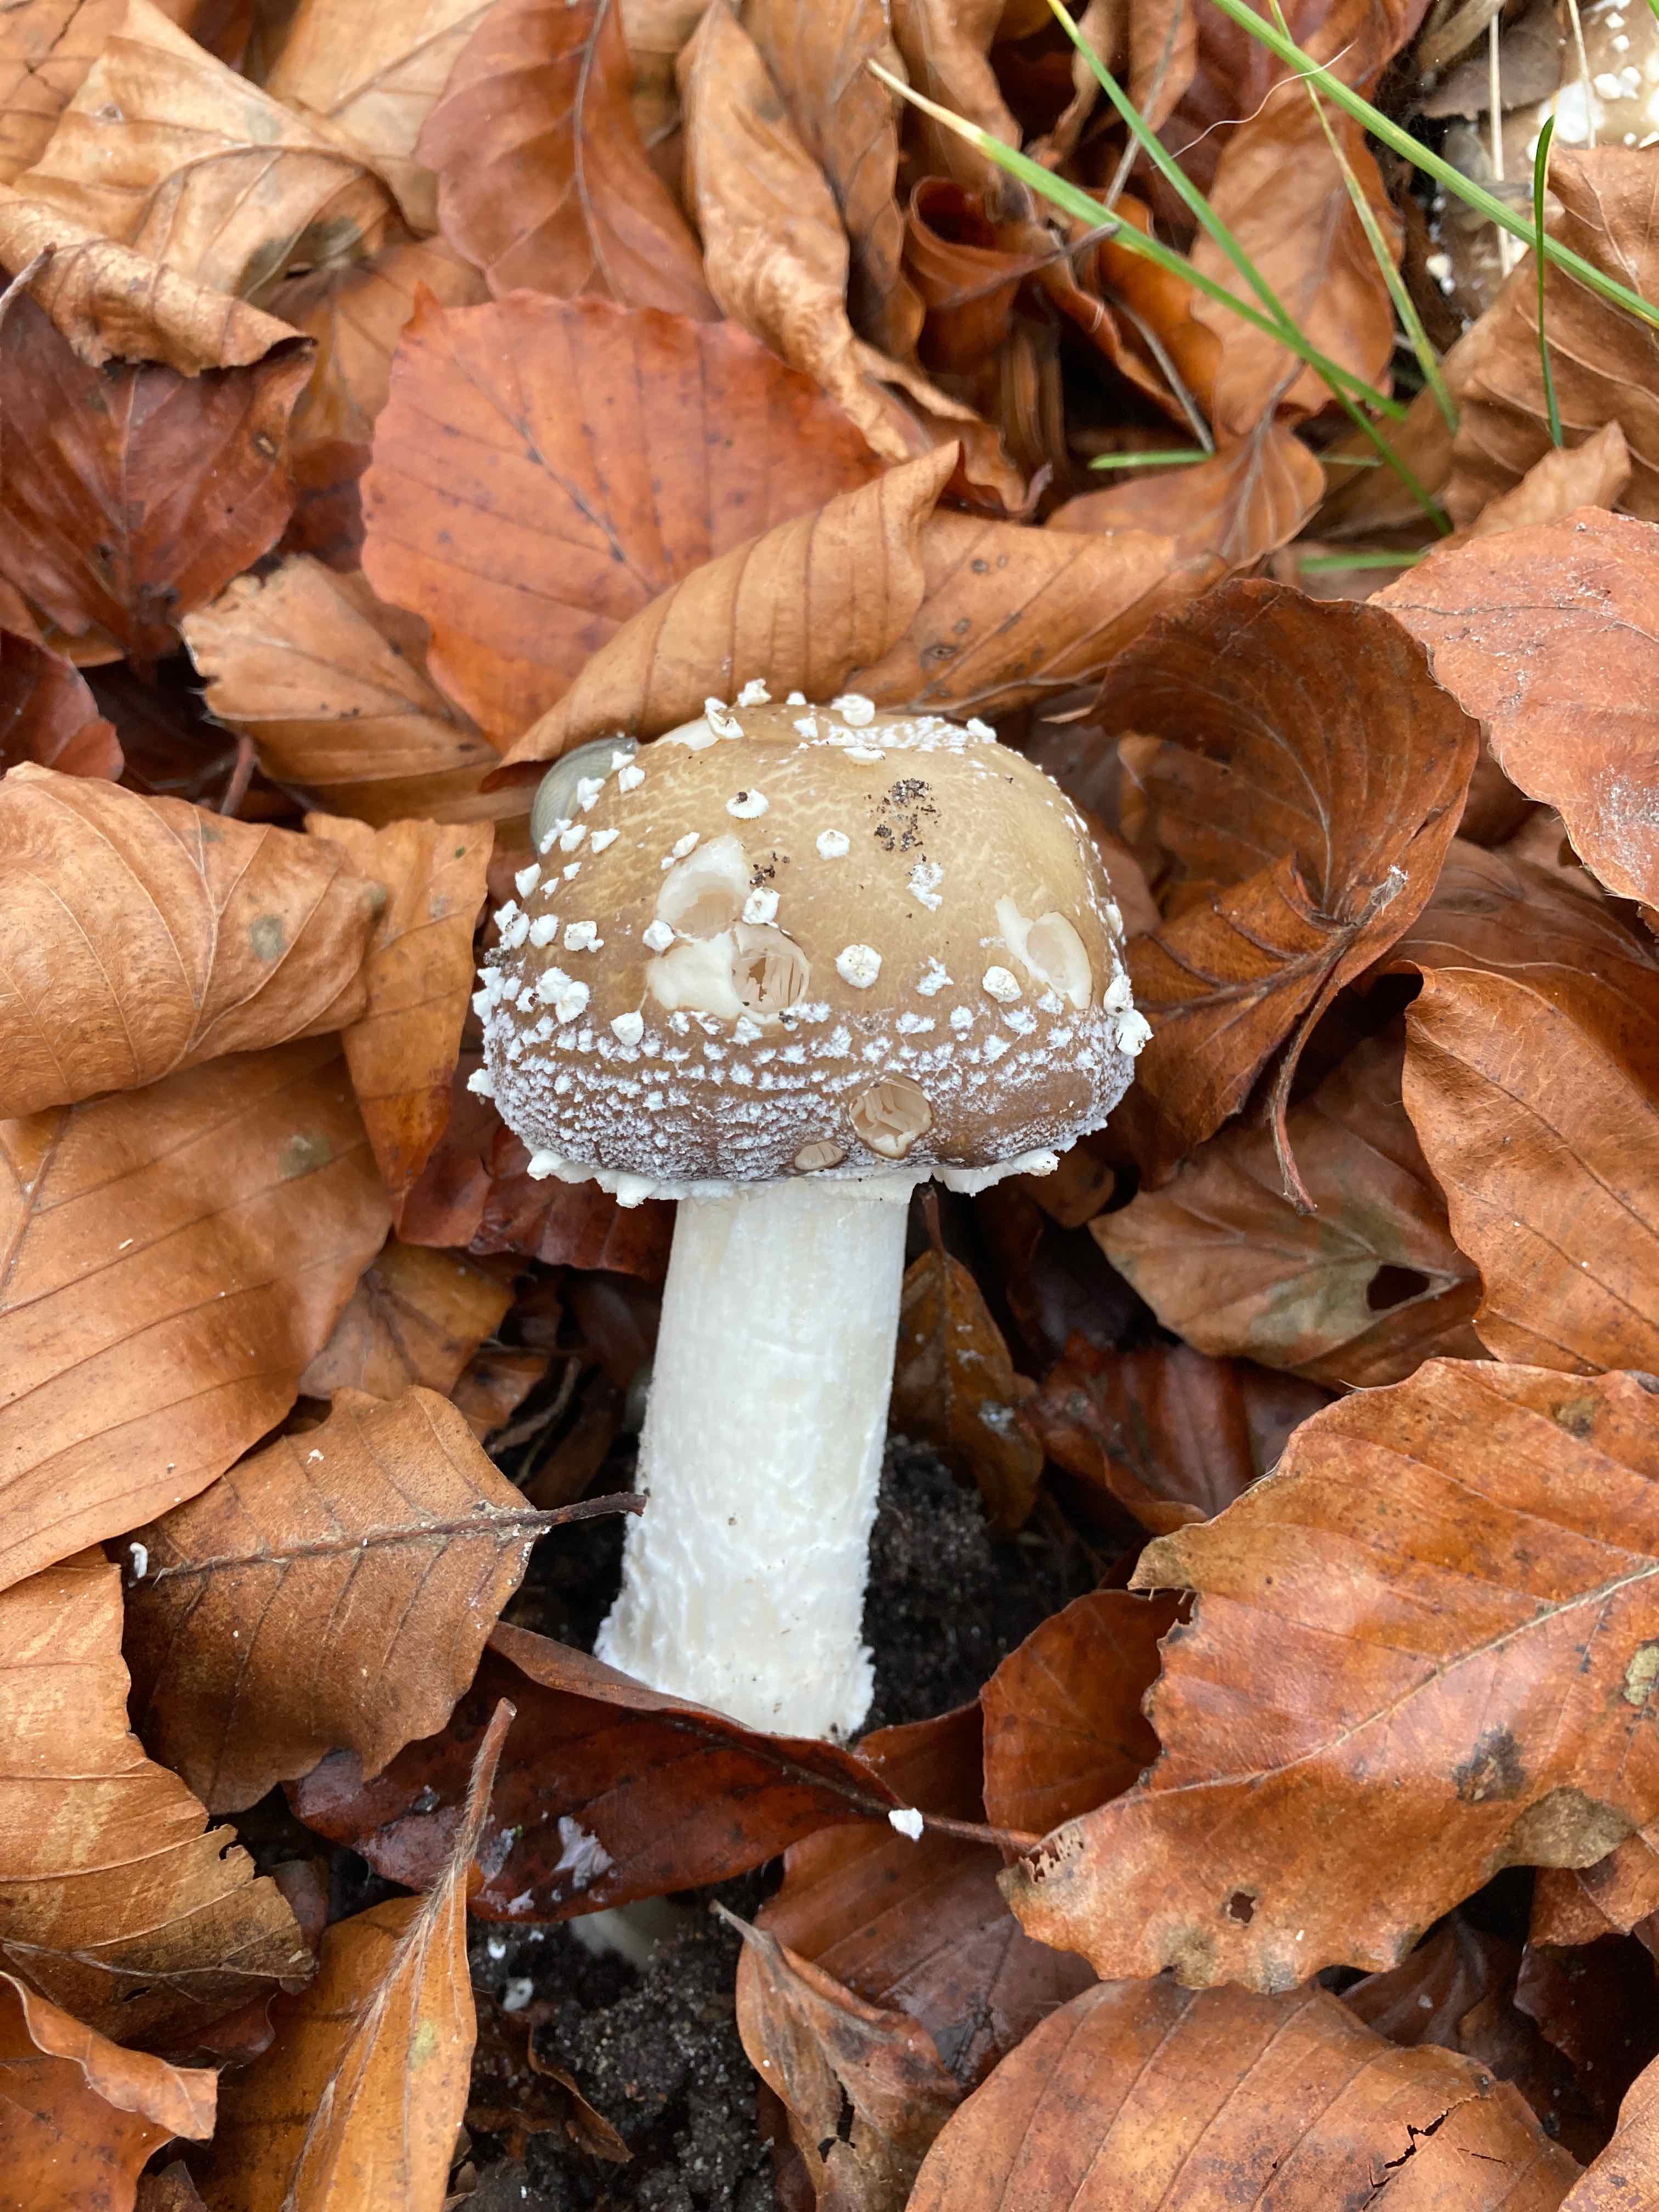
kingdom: Fungi
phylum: Basidiomycota
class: Agaricomycetes
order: Agaricales
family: Amanitaceae
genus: Amanita
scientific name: Amanita pantherina
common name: panter-fluesvamp
